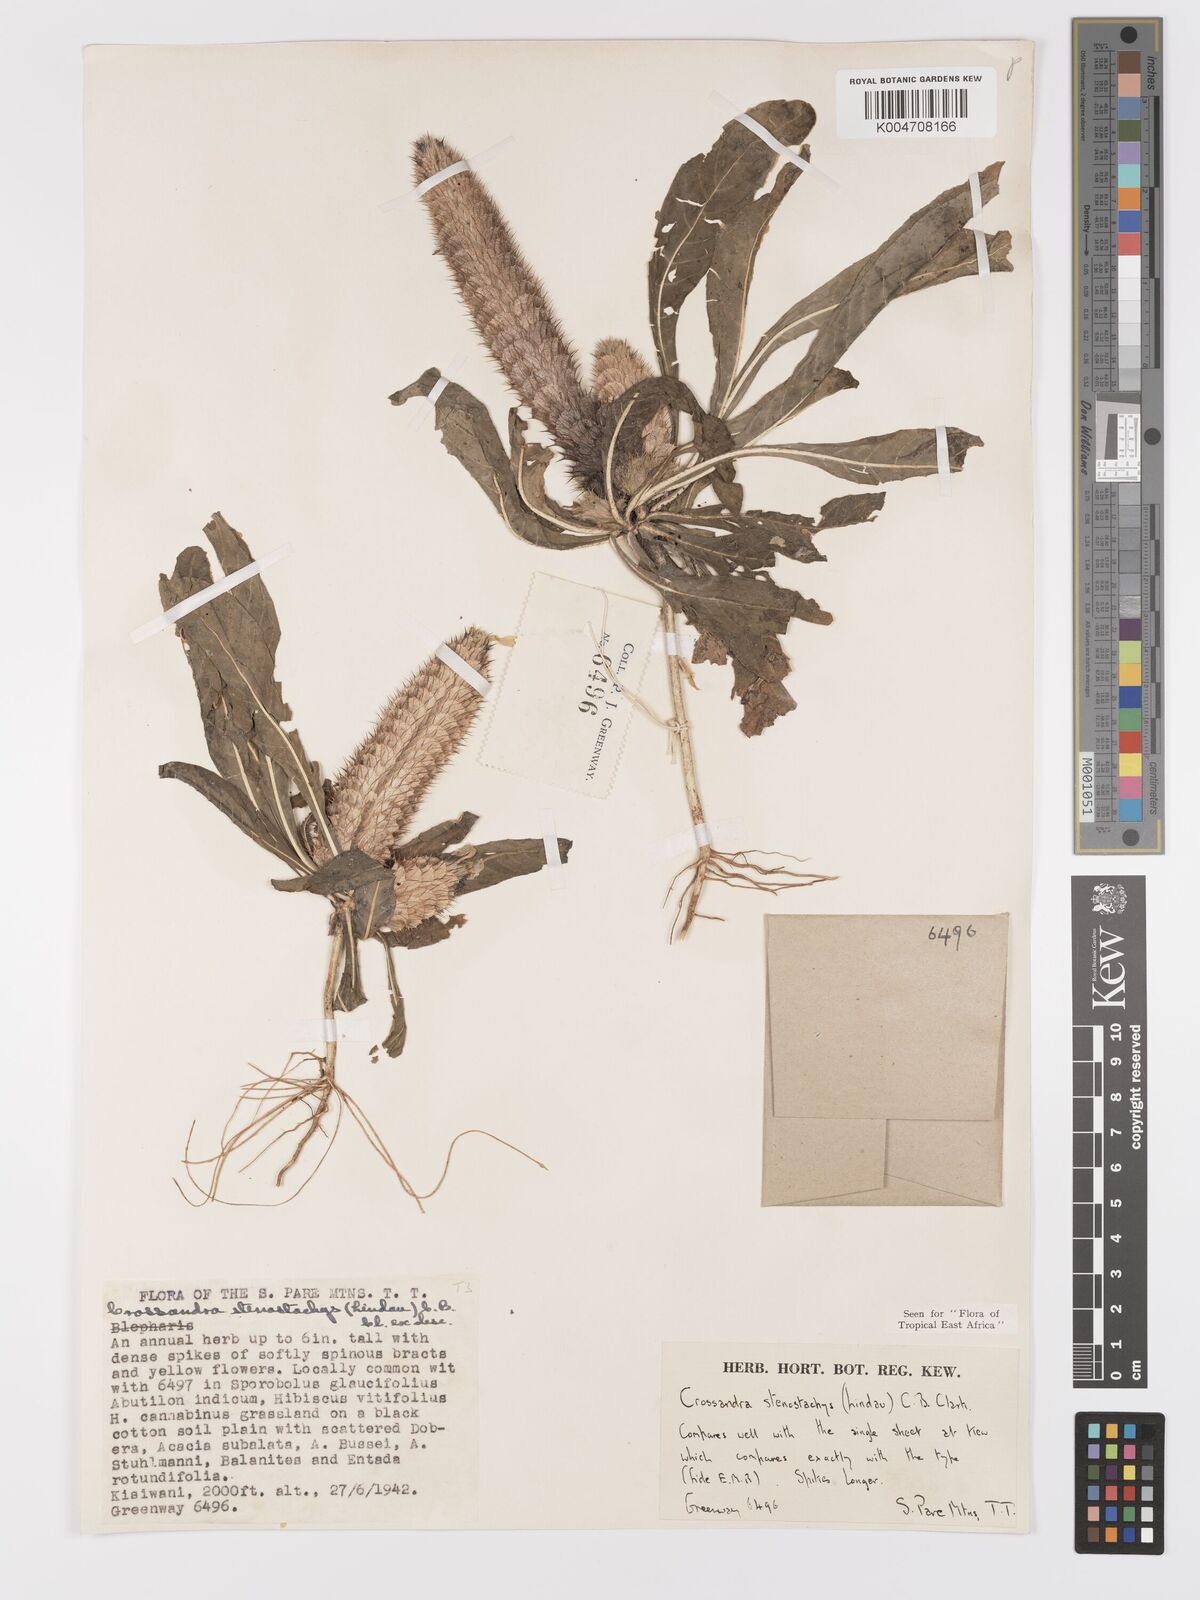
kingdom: Plantae
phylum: Tracheophyta
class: Magnoliopsida
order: Lamiales
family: Acanthaceae
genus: Crossandra
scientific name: Crossandra stenostachya
